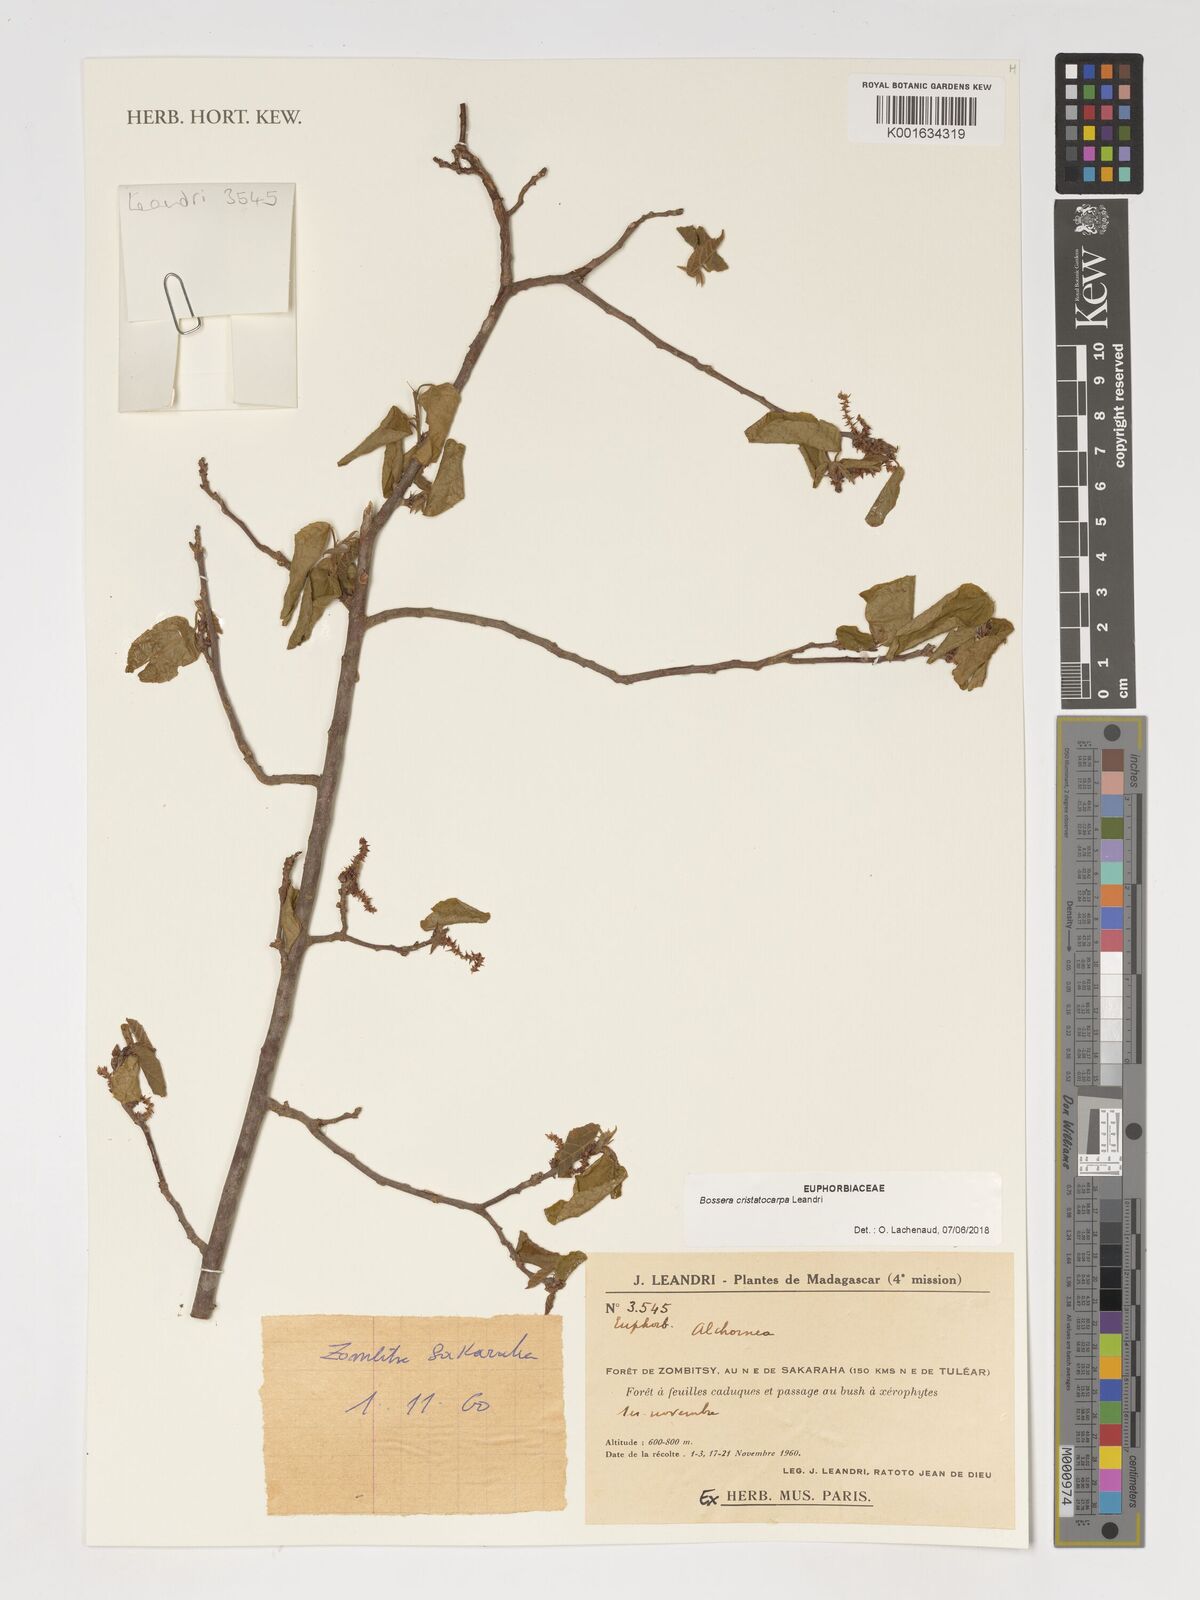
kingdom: Plantae
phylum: Tracheophyta
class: Magnoliopsida
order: Malpighiales
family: Euphorbiaceae
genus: Bossera
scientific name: Bossera cristatocarpa
